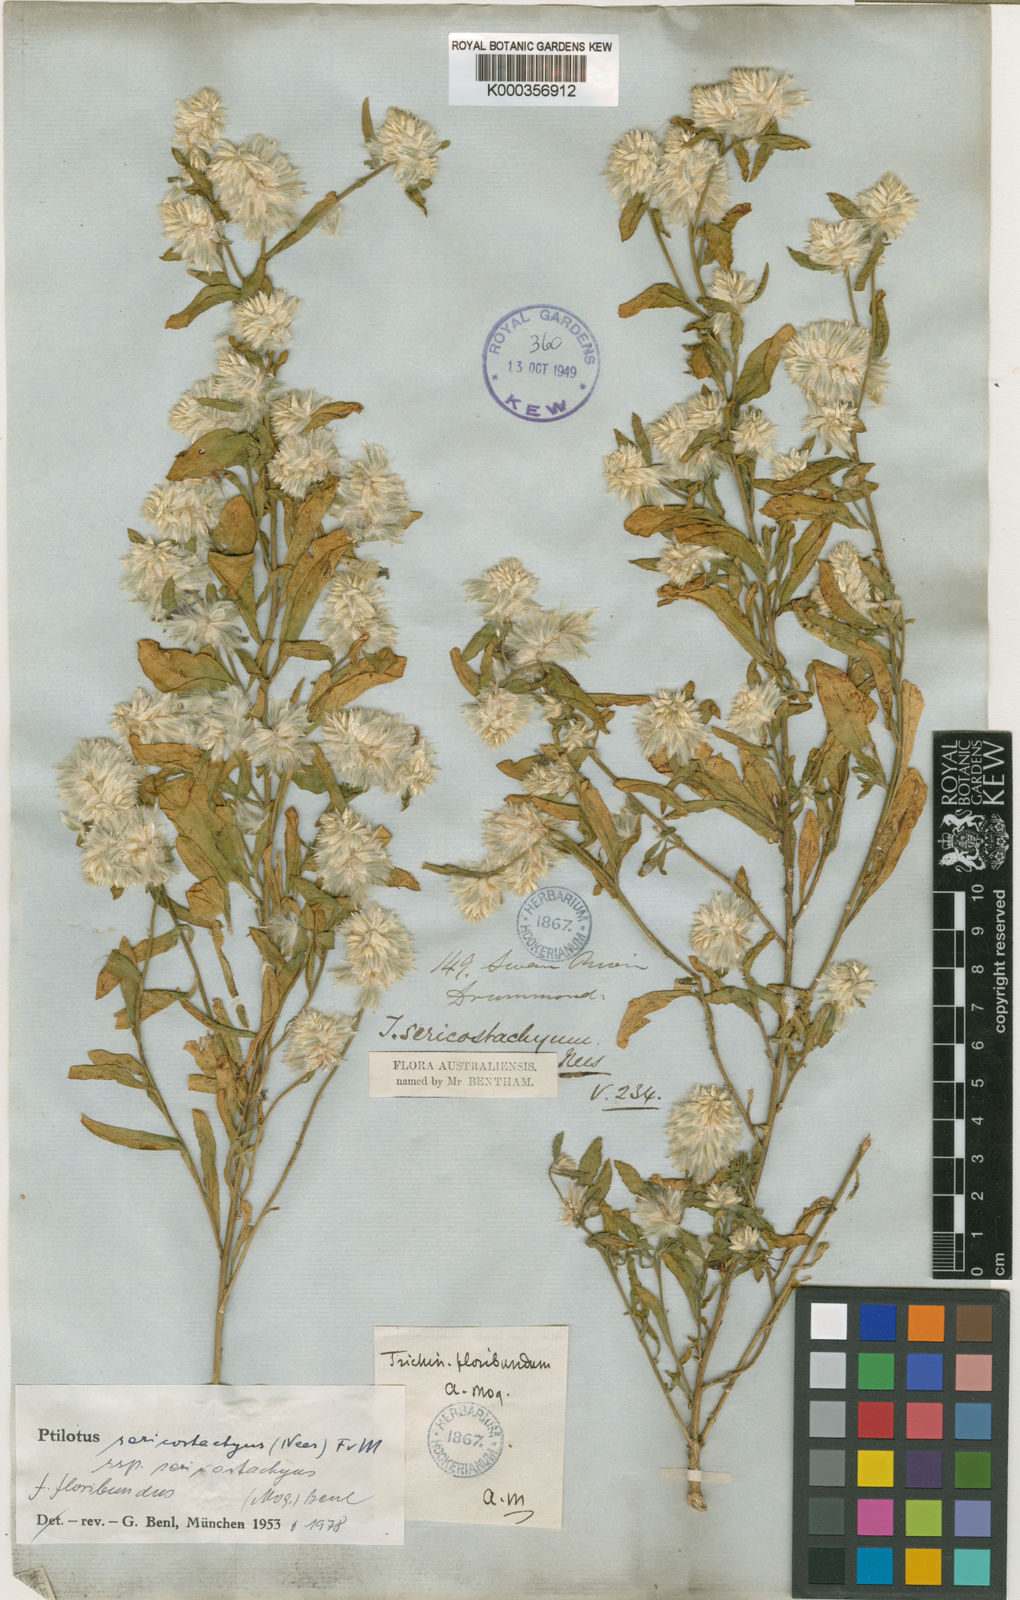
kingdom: Plantae
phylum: Tracheophyta
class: Magnoliopsida
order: Caryophyllales
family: Amaranthaceae
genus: Ptilotus
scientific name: Ptilotus sericostachyus
